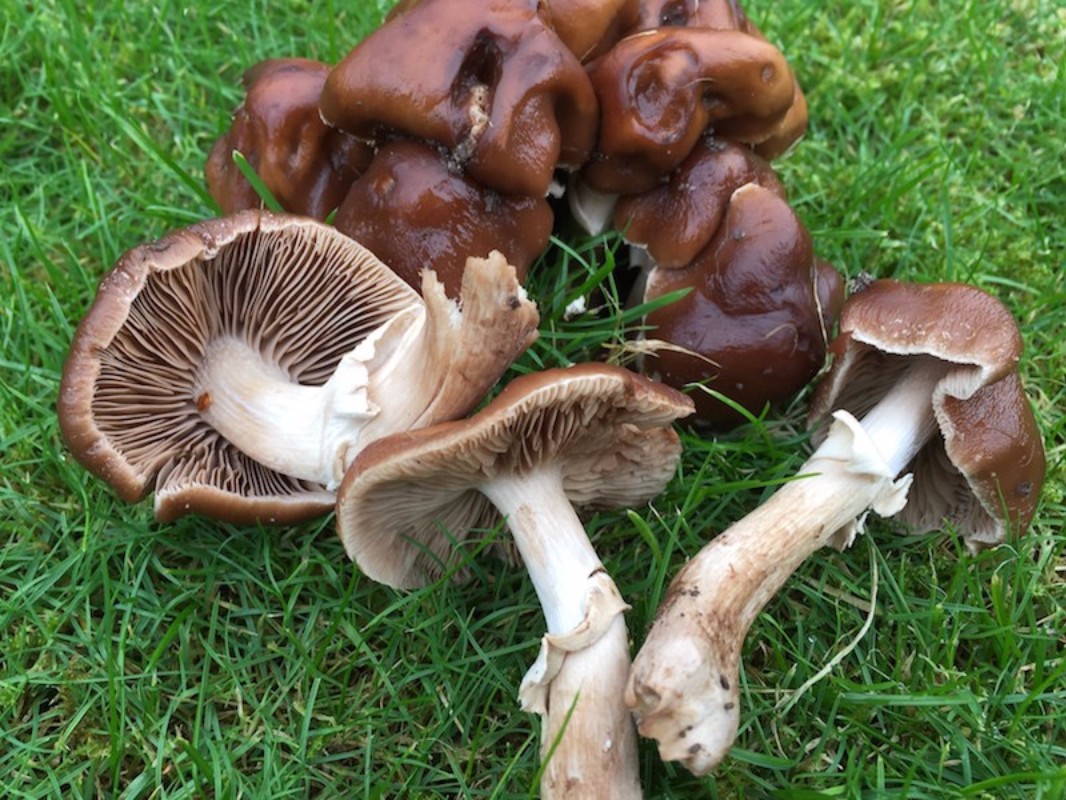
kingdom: Fungi
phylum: Basidiomycota
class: Agaricomycetes
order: Agaricales
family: Tubariaceae
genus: Cyclocybe
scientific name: Cyclocybe erebia
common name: mørk agerhat
